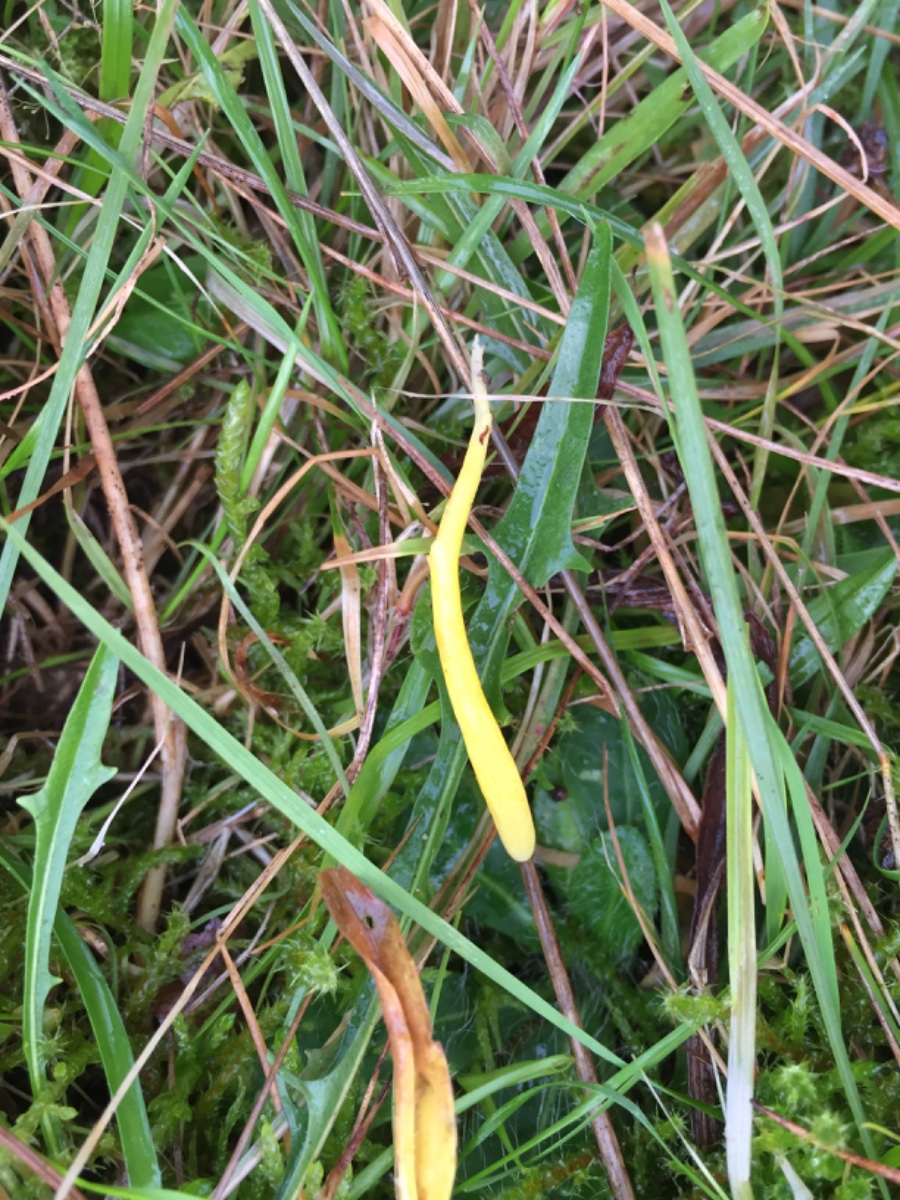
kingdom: Fungi
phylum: Basidiomycota
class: Agaricomycetes
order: Agaricales
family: Clavariaceae
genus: Clavulinopsis
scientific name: Clavulinopsis helvola
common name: orangegul køllesvamp
